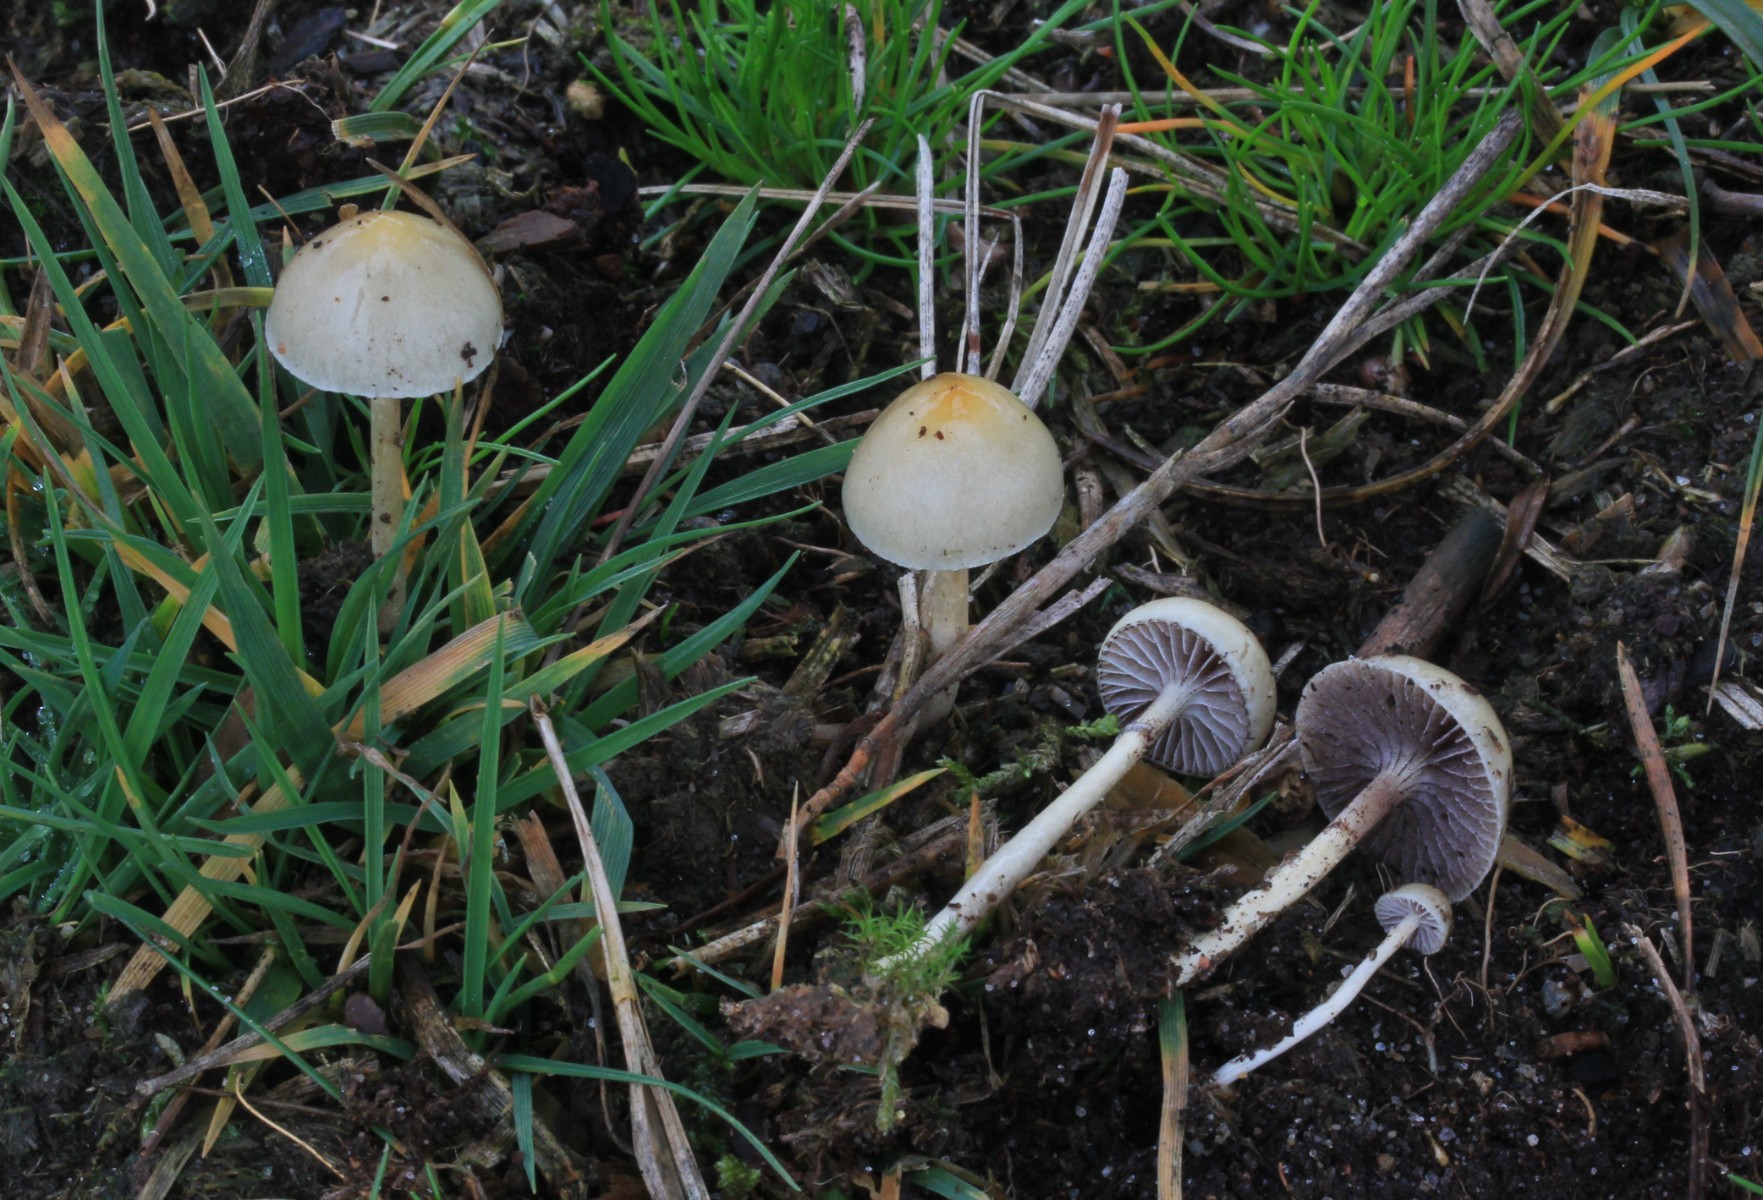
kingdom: Fungi
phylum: Basidiomycota
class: Agaricomycetes
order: Agaricales
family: Strophariaceae
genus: Protostropharia
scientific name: Protostropharia semiglobata
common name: halvkugleformet bredblad
